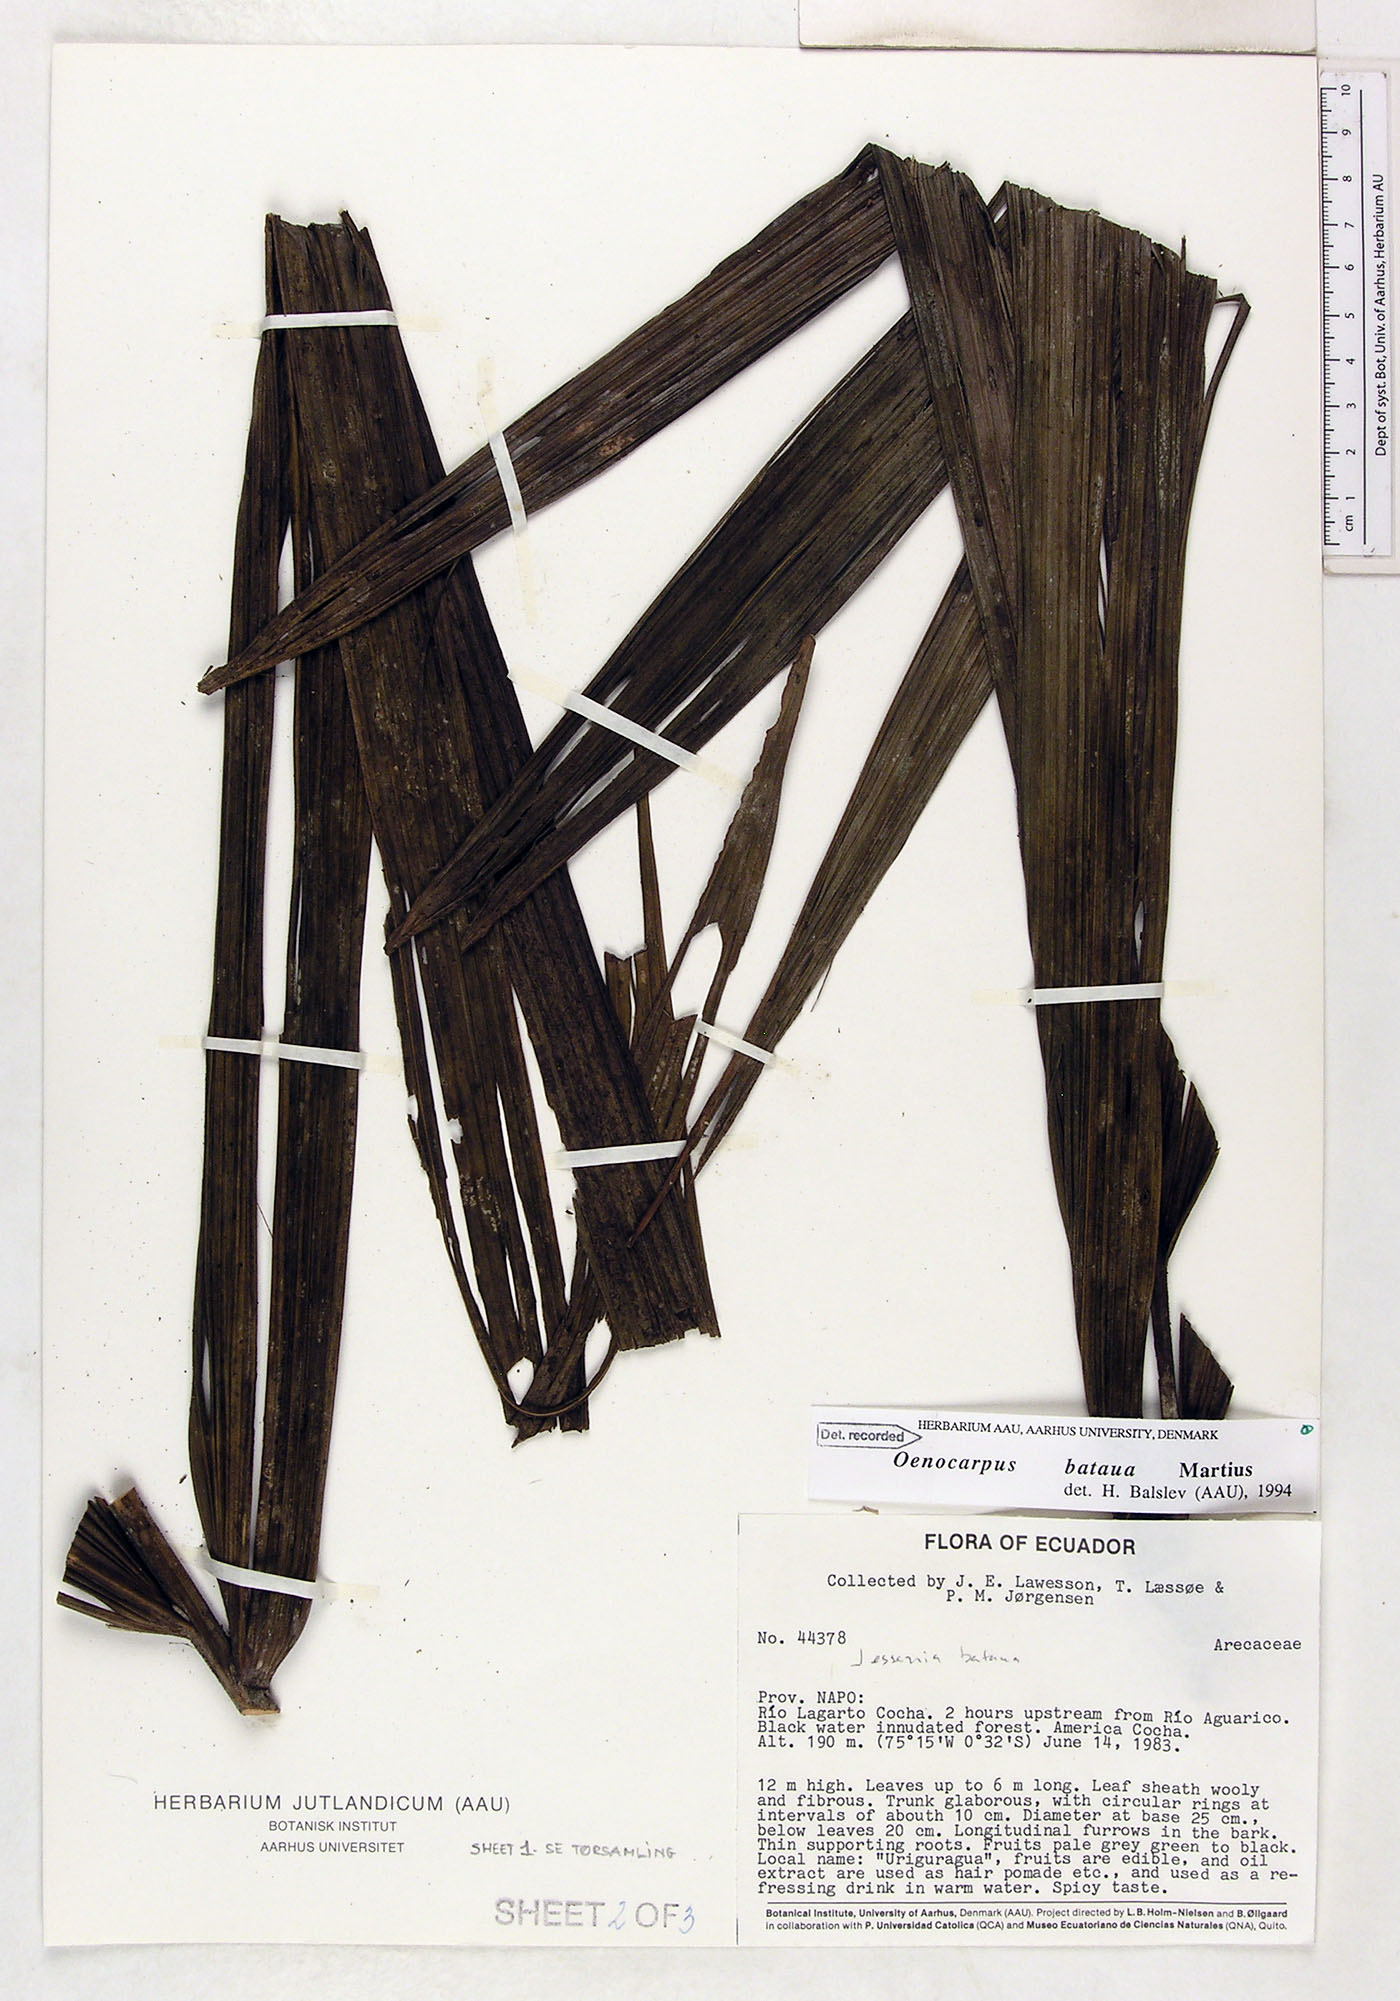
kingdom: Plantae
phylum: Tracheophyta
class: Liliopsida
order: Arecales
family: Arecaceae
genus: Oenocarpus
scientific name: Oenocarpus bataua
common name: Bataua palm
